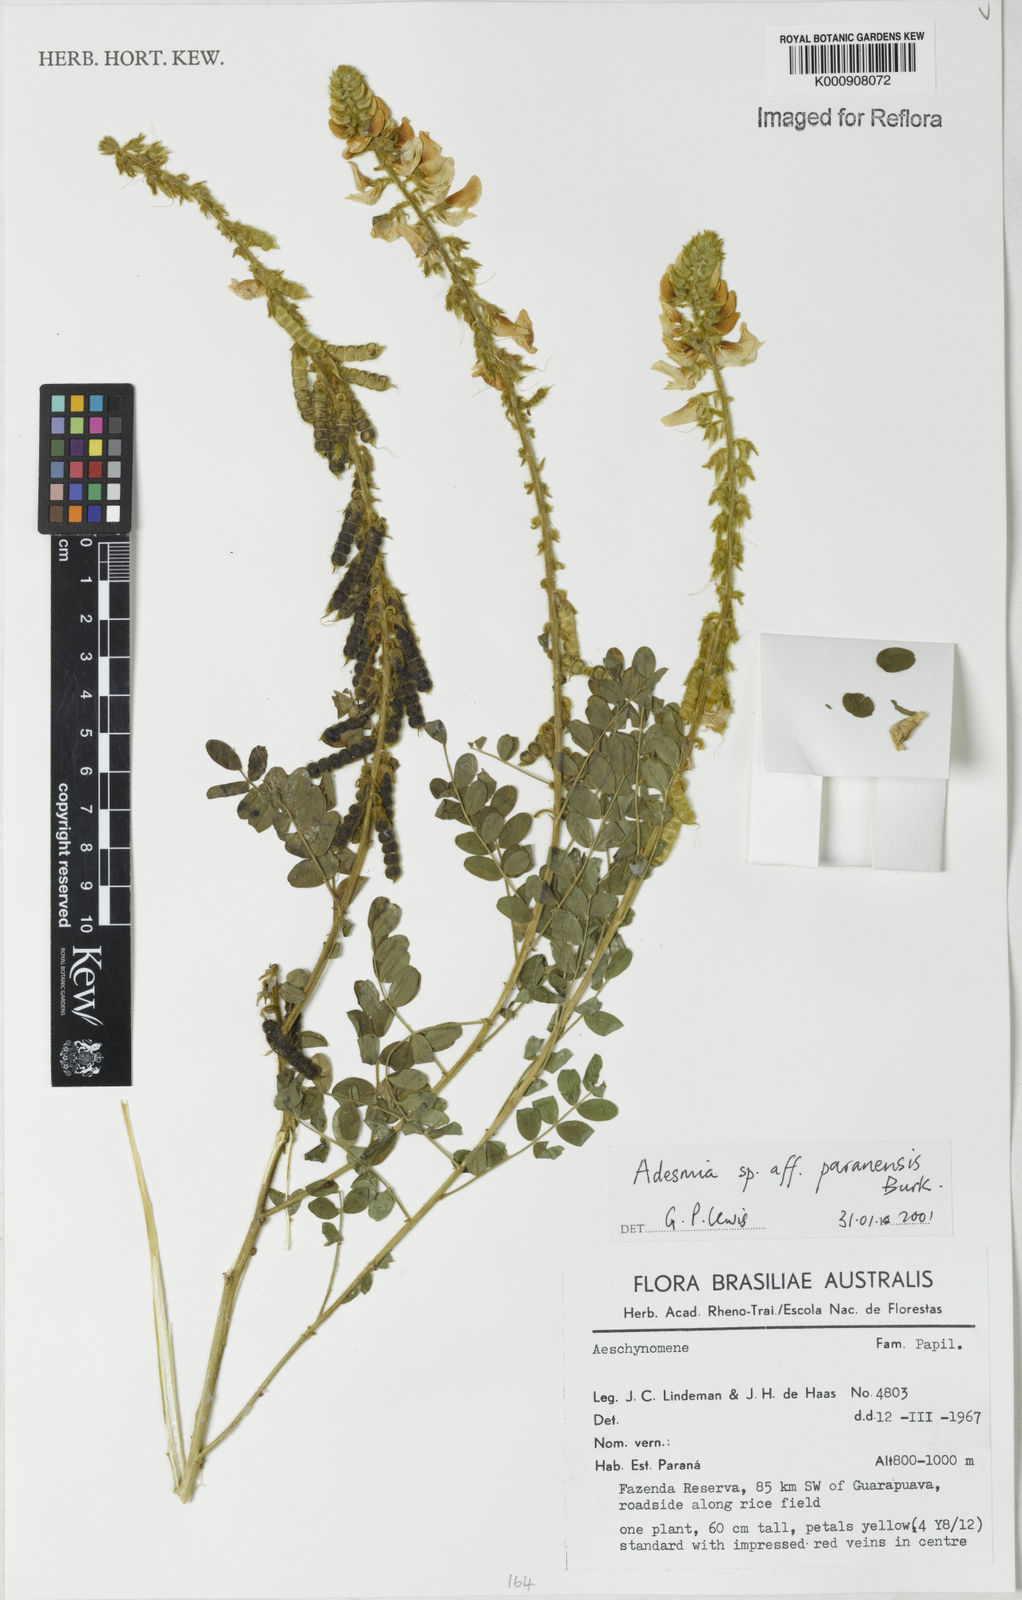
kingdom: Plantae
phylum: Tracheophyta
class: Magnoliopsida
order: Fabales
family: Fabaceae
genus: Adesmia
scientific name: Adesmia paranensis
